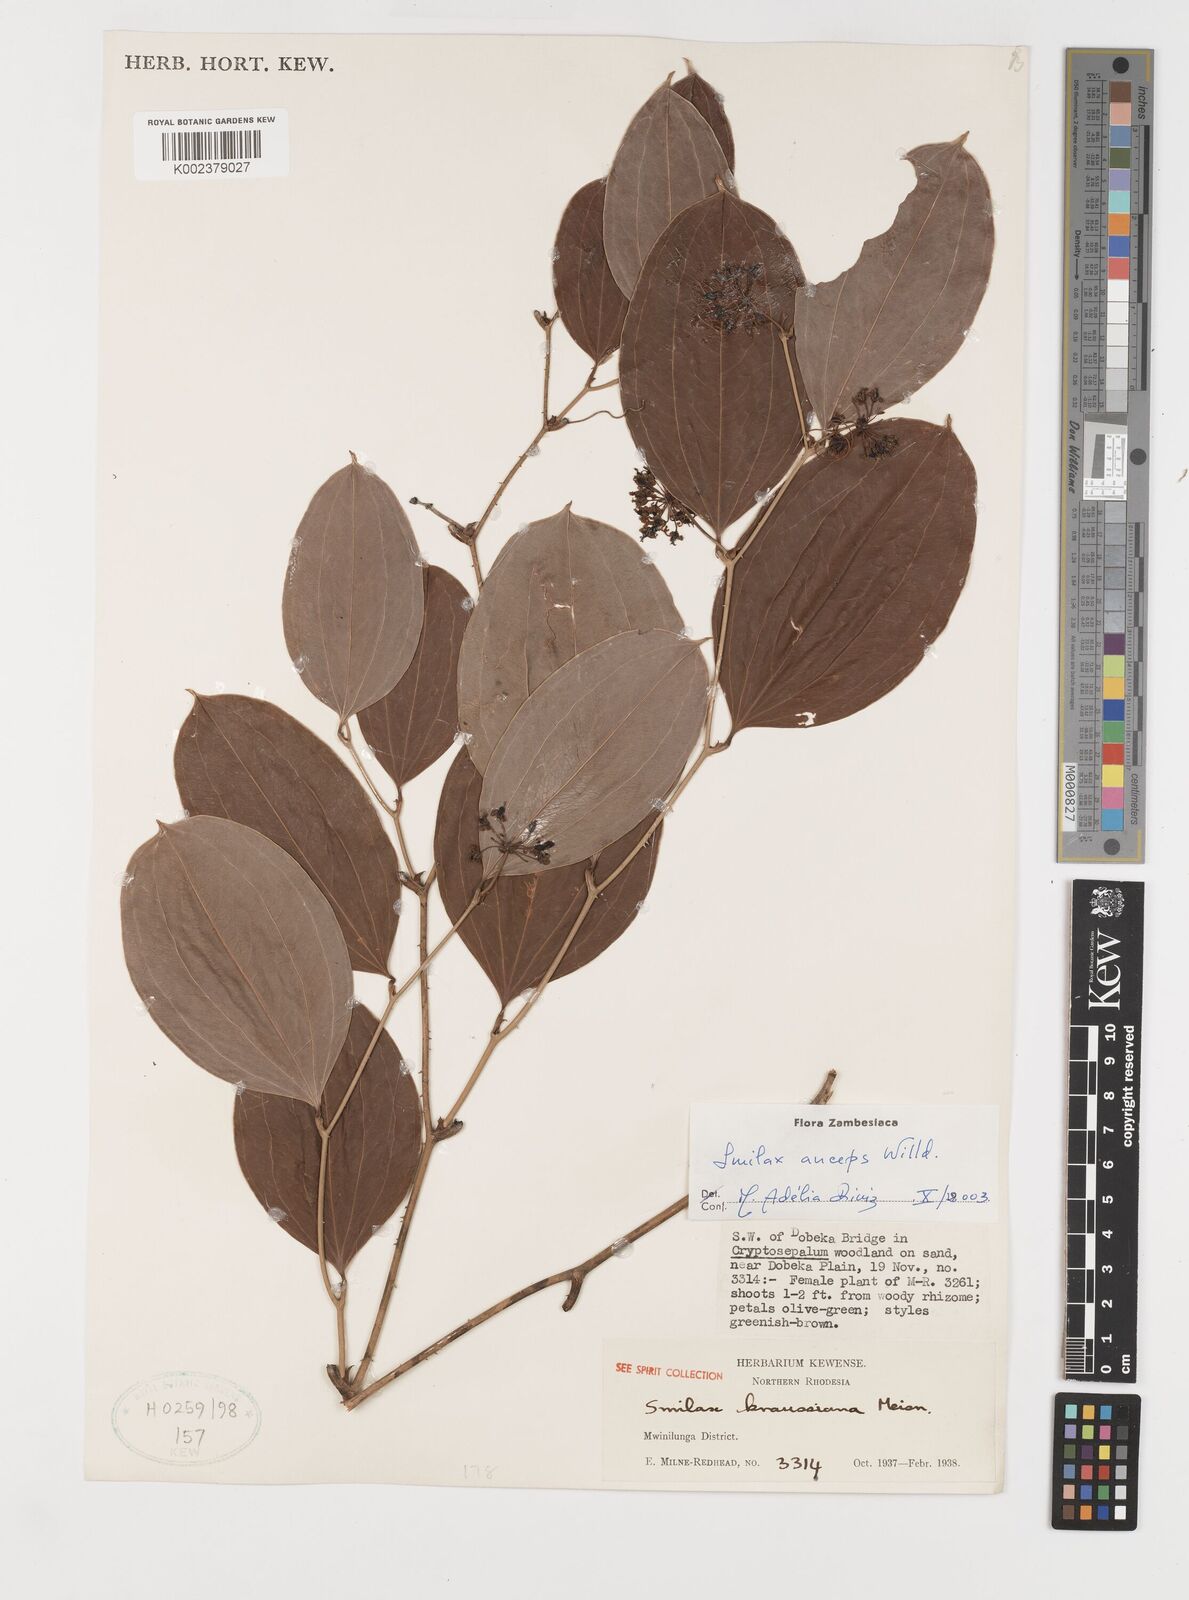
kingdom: Plantae
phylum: Tracheophyta
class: Liliopsida
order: Liliales
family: Smilacaceae
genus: Smilax
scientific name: Smilax anceps
